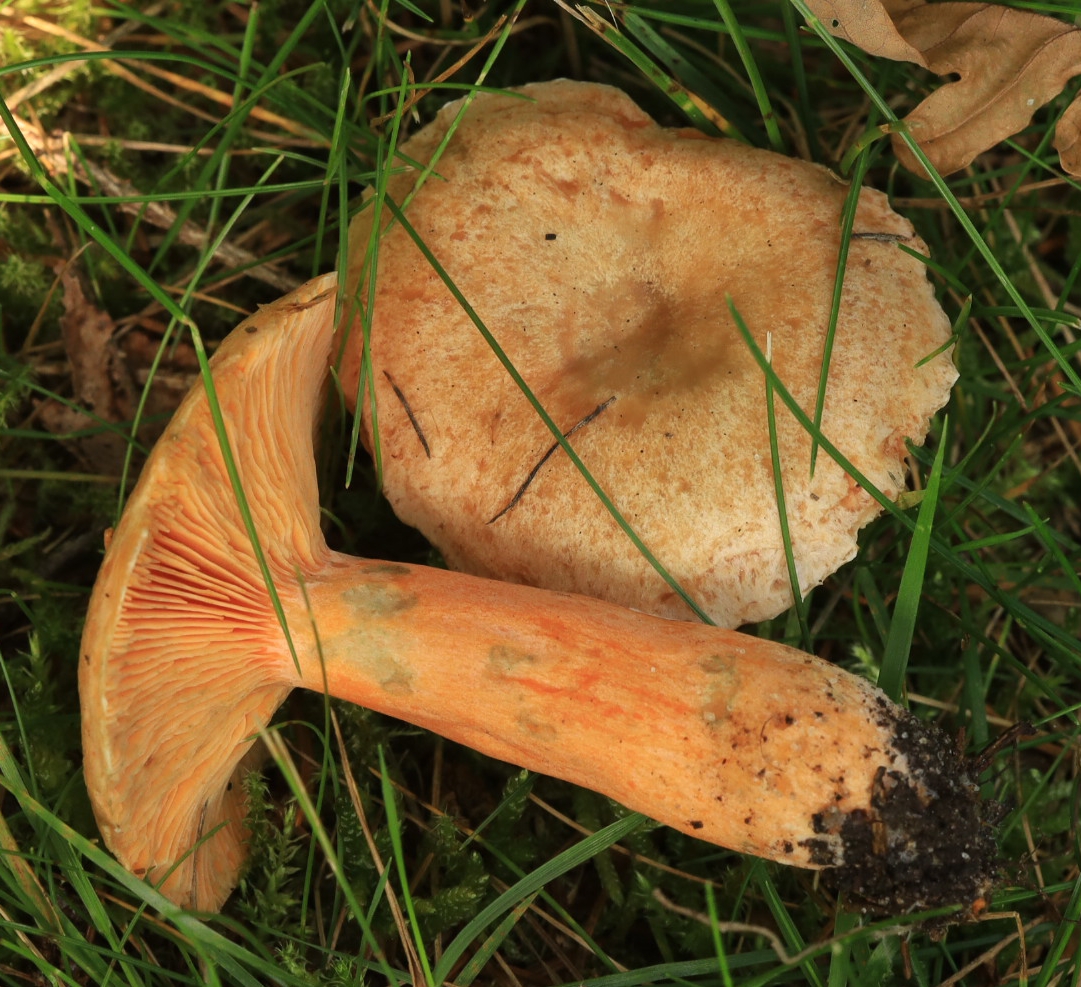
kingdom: Fungi
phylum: Basidiomycota
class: Agaricomycetes
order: Russulales
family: Russulaceae
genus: Lactarius
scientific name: Lactarius deterrimus
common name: gran-mælkehat
